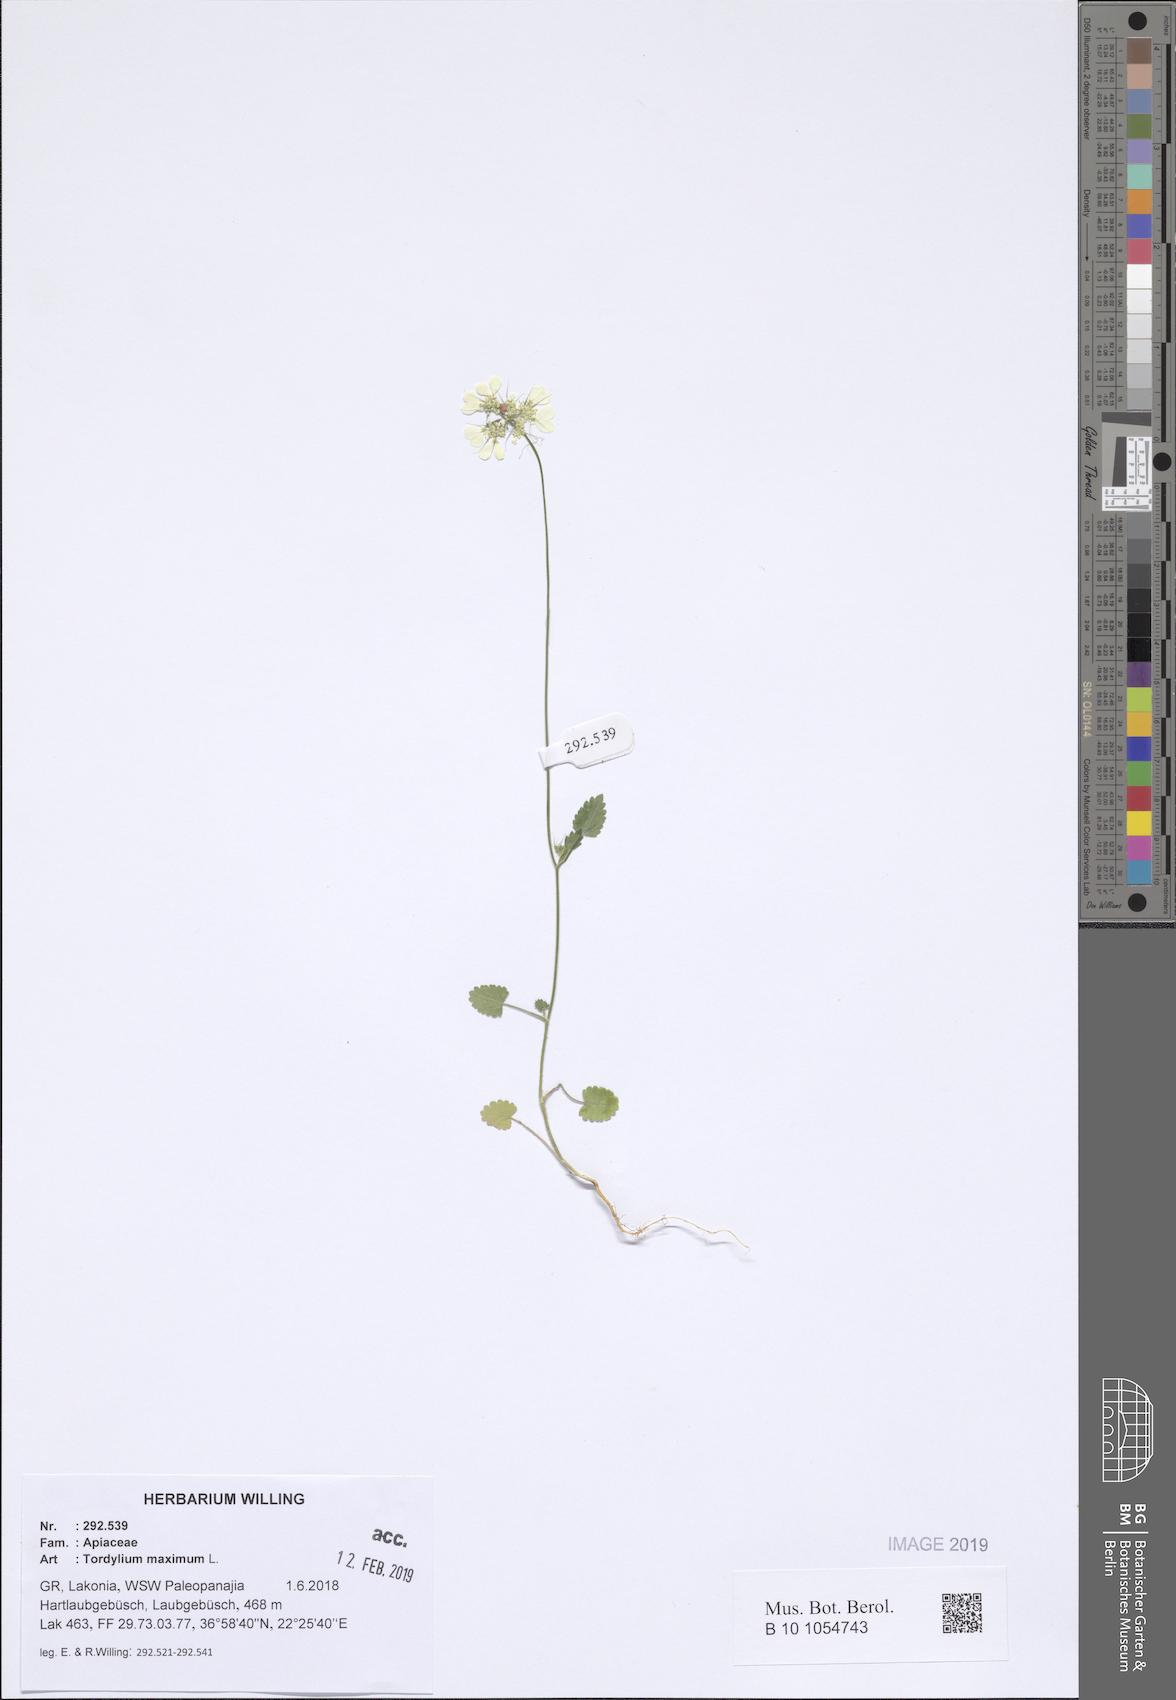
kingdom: Plantae
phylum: Tracheophyta
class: Magnoliopsida
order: Apiales
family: Apiaceae
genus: Tordylium
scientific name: Tordylium maximum
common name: Hartwort
